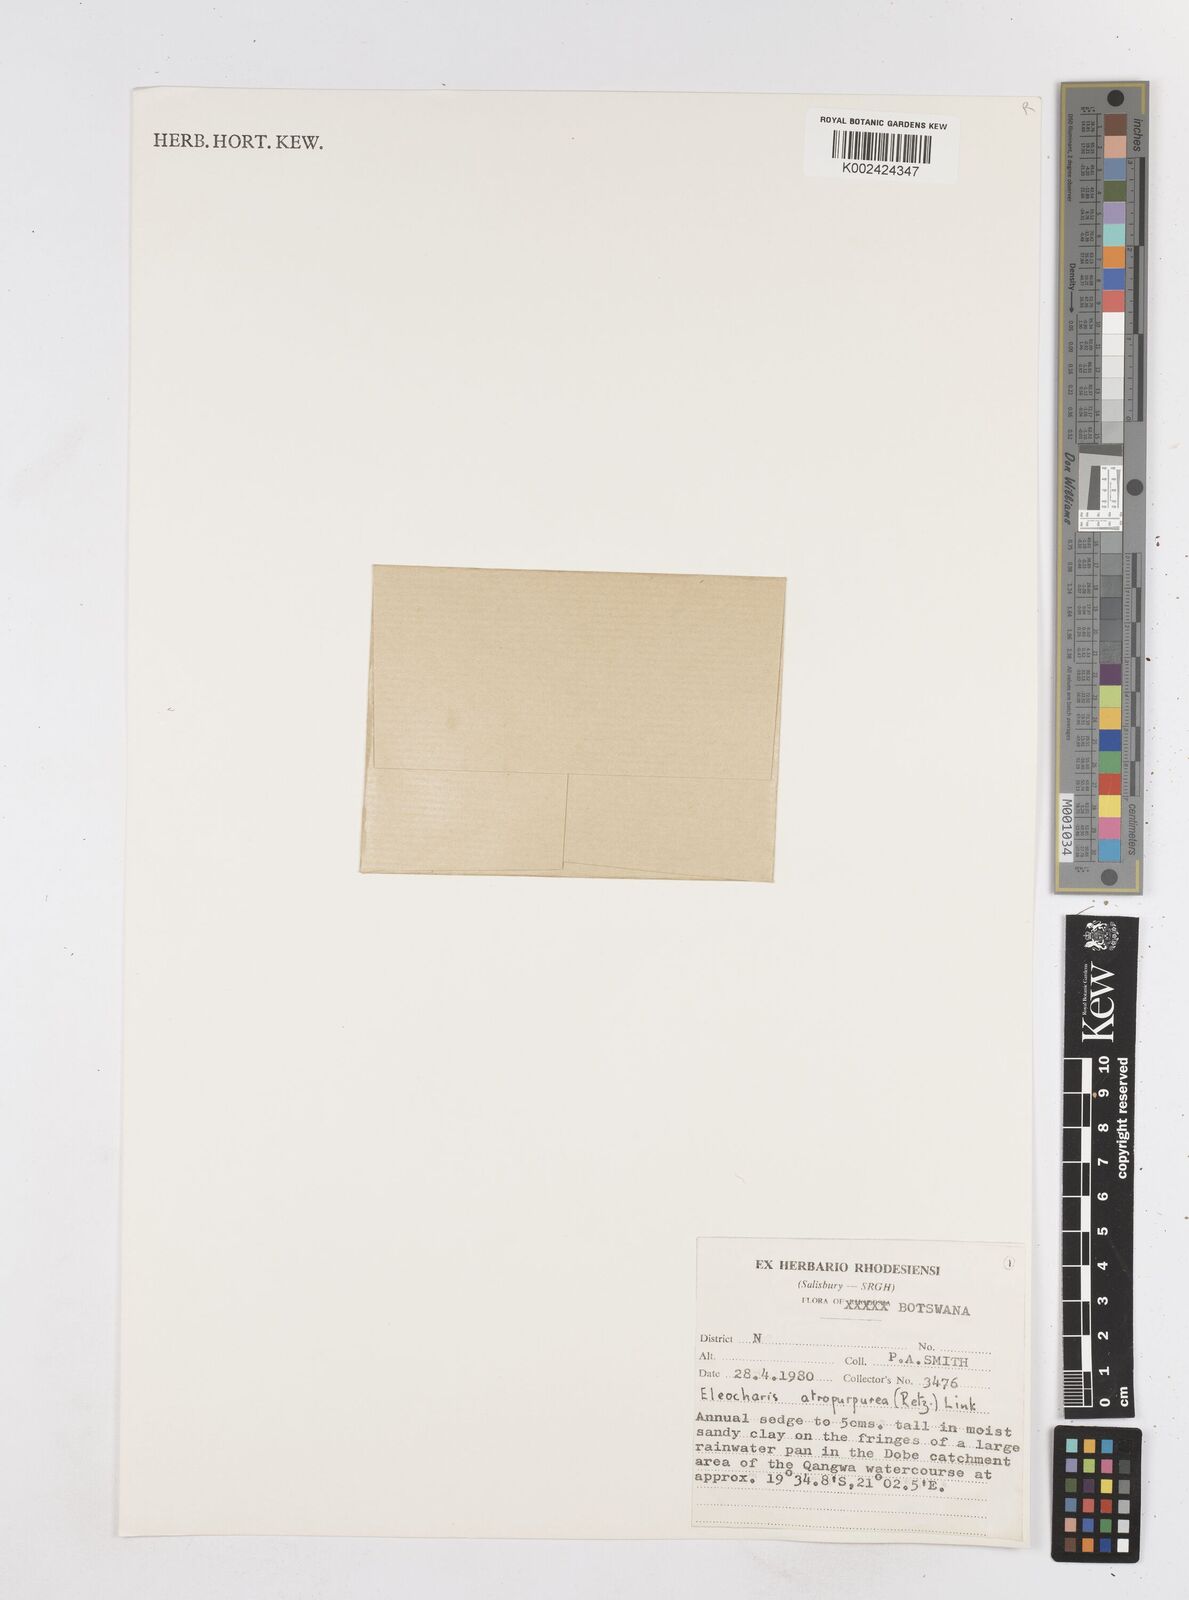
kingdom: Plantae
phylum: Tracheophyta
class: Liliopsida
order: Poales
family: Cyperaceae
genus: Eleocharis
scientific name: Eleocharis atropurpurea
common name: Purple spikerush
